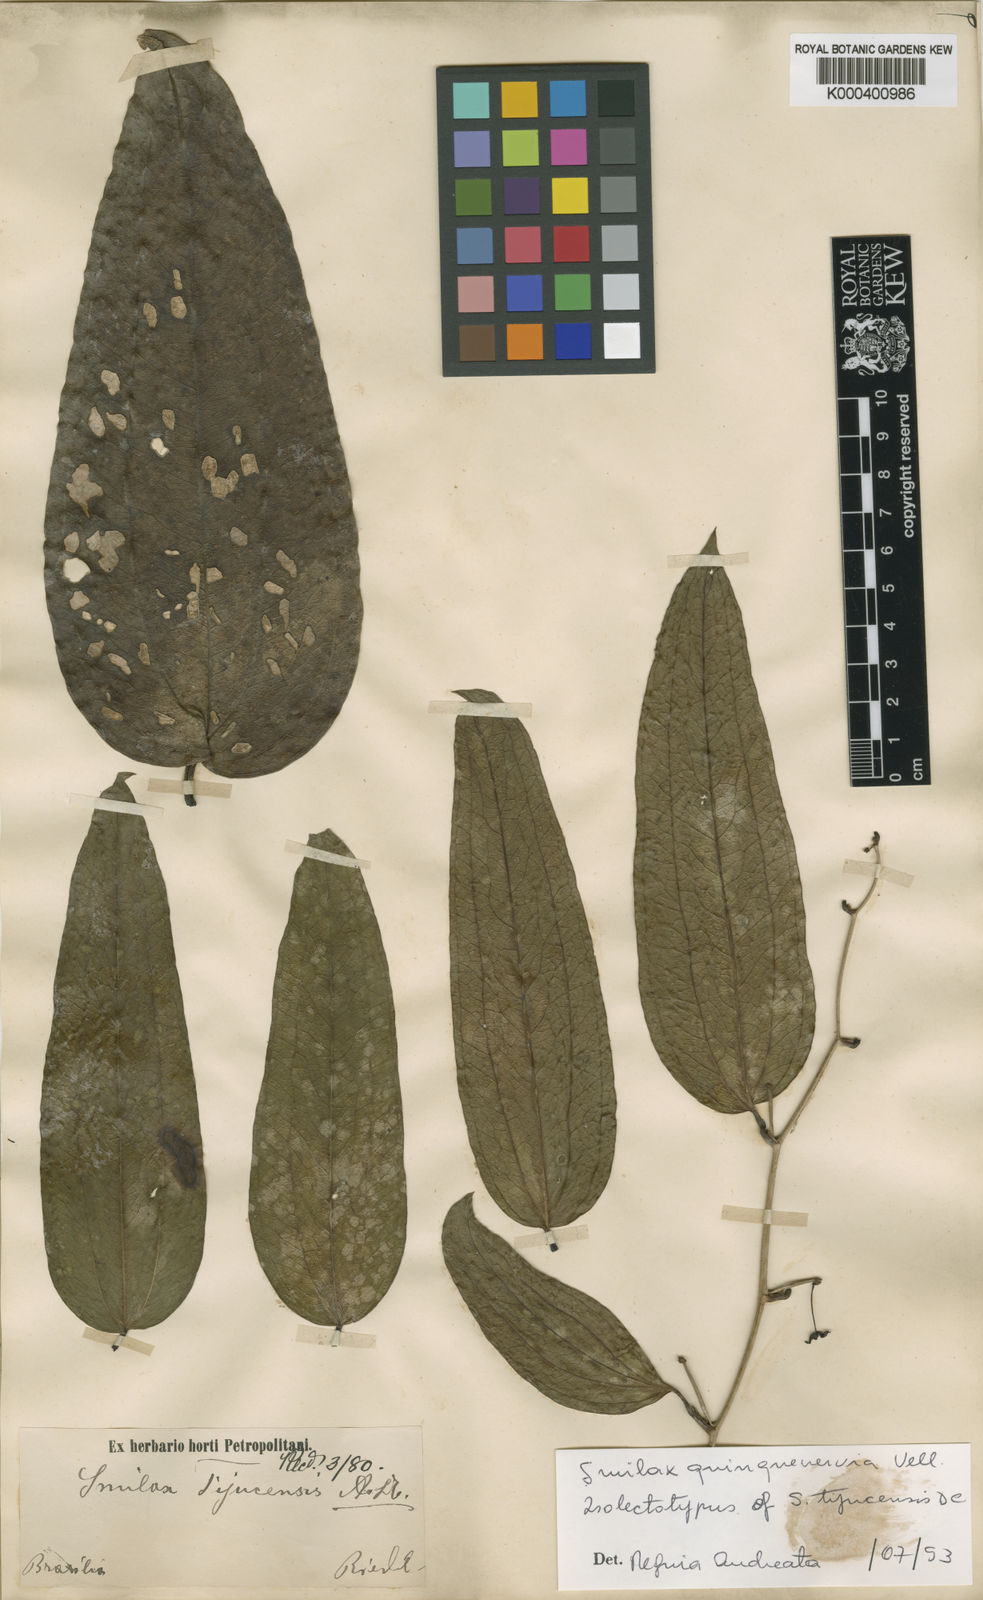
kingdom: Plantae
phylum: Tracheophyta
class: Liliopsida
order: Liliales
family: Smilacaceae
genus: Smilax
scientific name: Smilax quinquenervia
